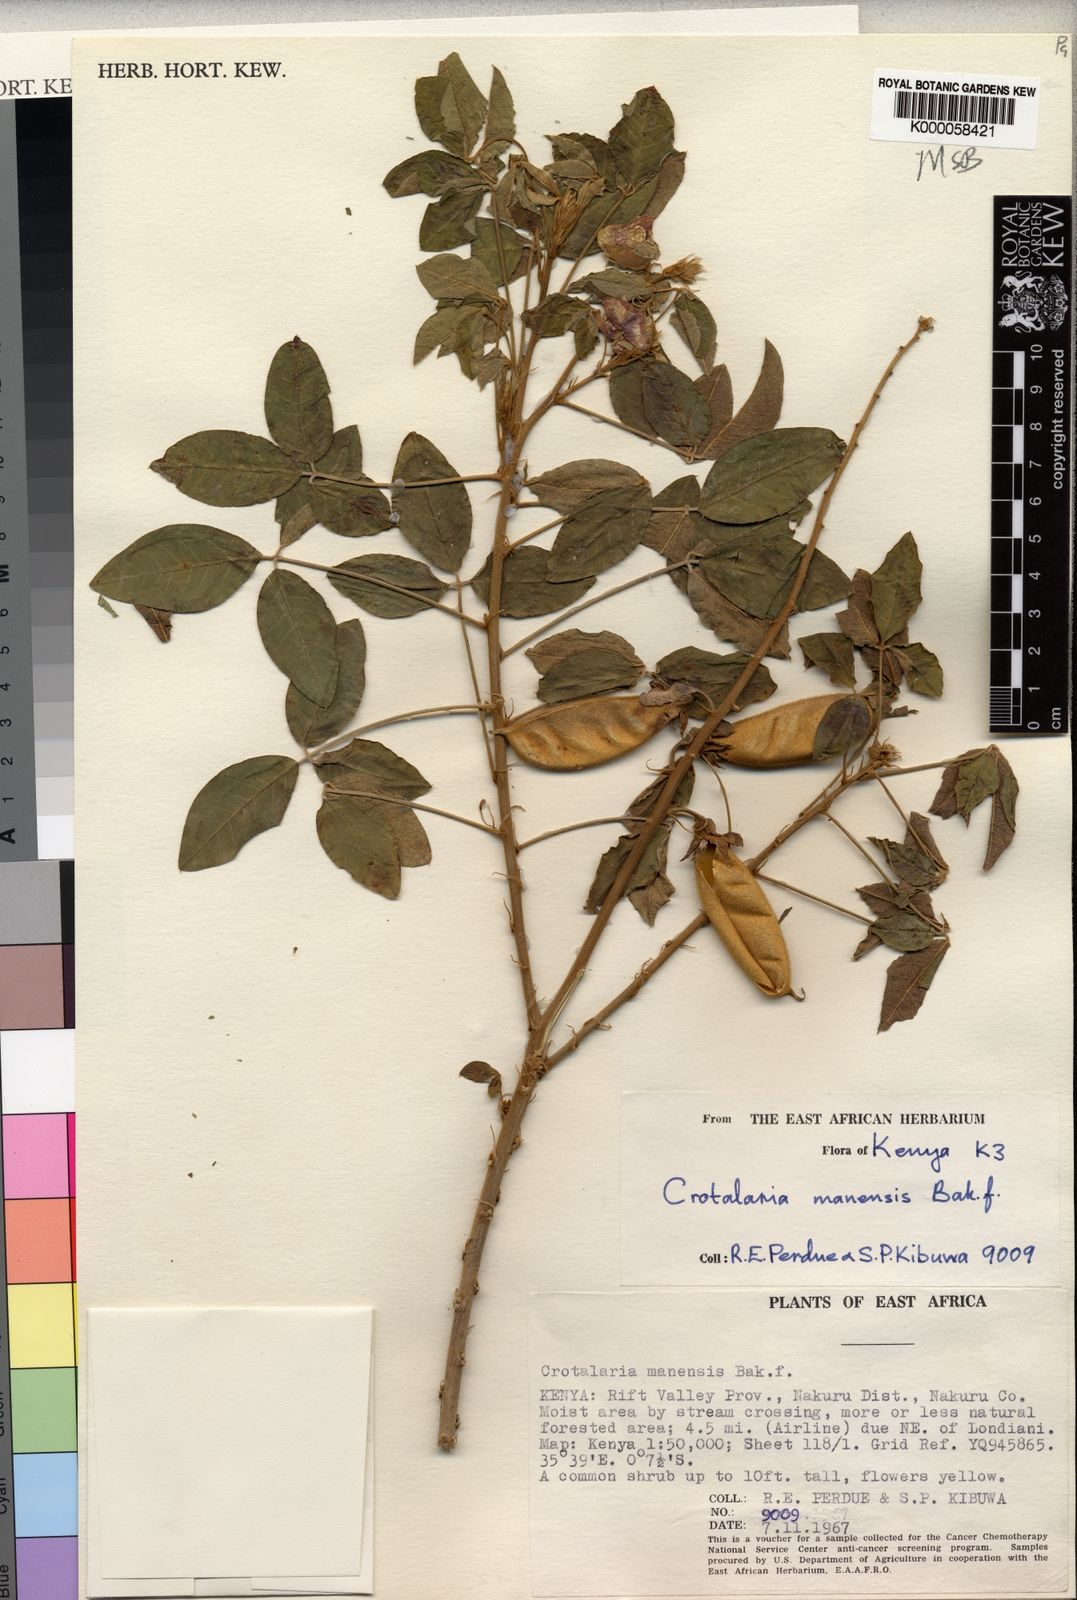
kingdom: Plantae
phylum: Tracheophyta
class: Magnoliopsida
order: Fabales
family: Fabaceae
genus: Crotalaria
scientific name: Crotalaria mauensis
